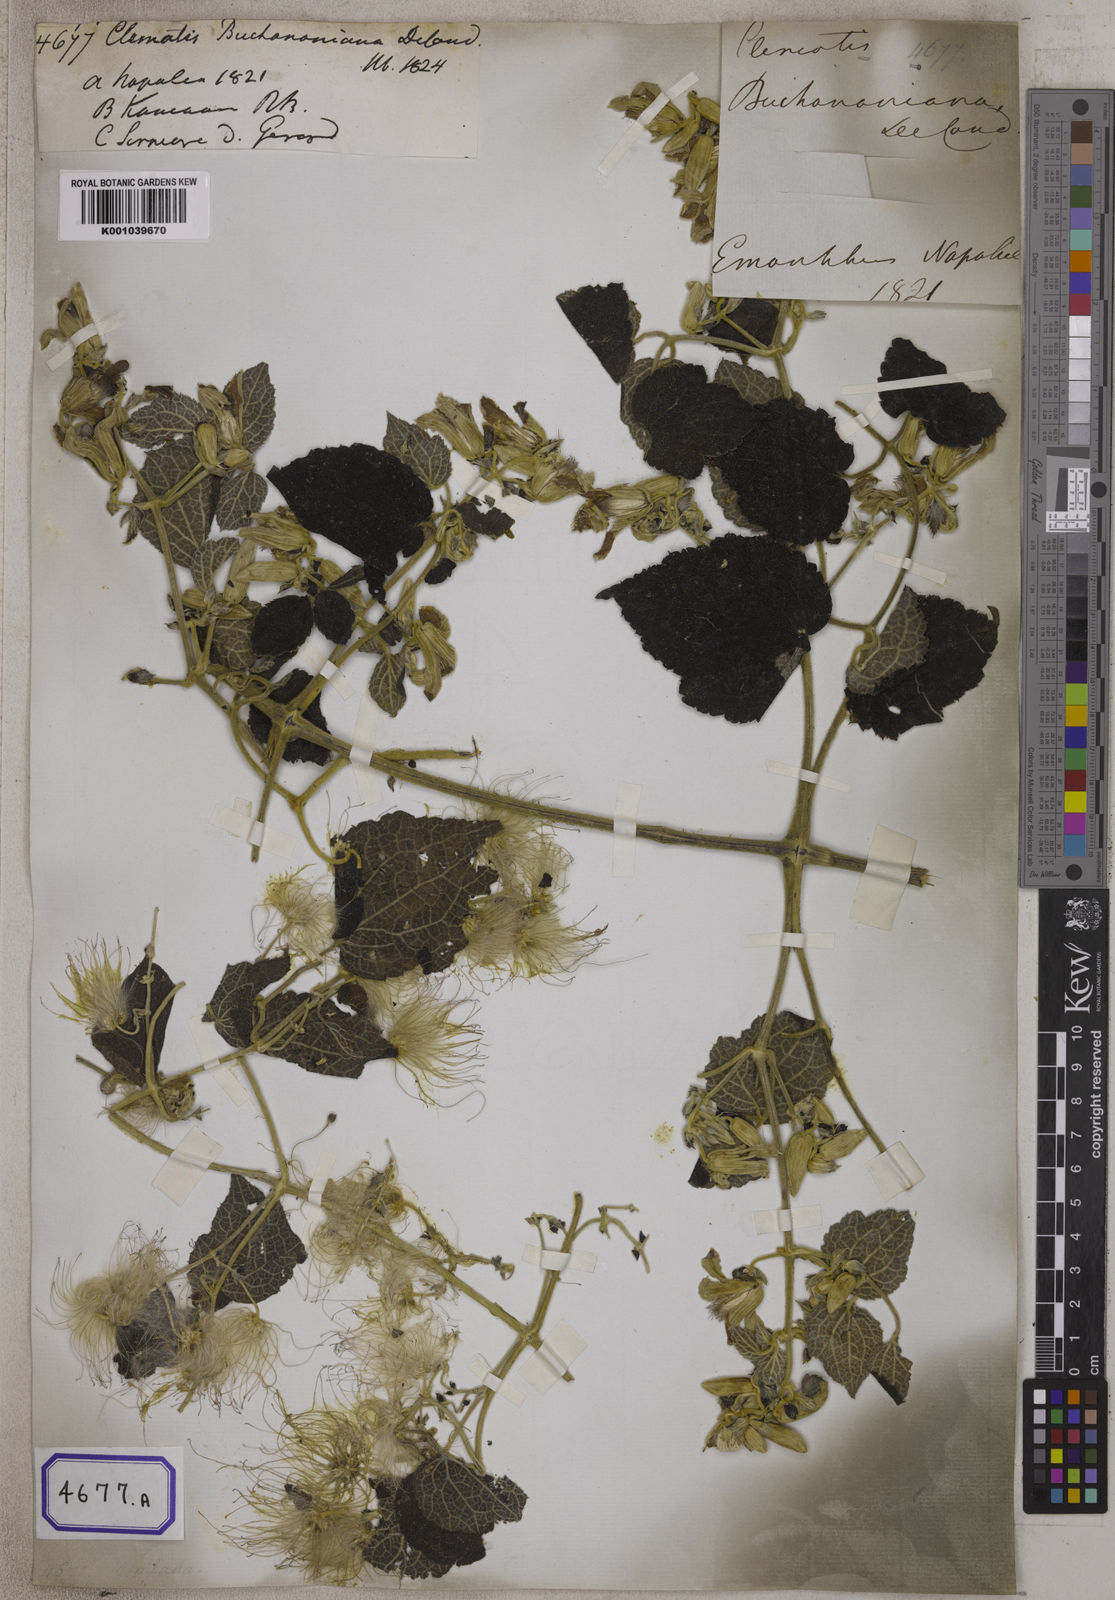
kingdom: Plantae
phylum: Tracheophyta
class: Magnoliopsida
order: Ranunculales
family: Ranunculaceae
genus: Clematis
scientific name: Clematis buchananiana
